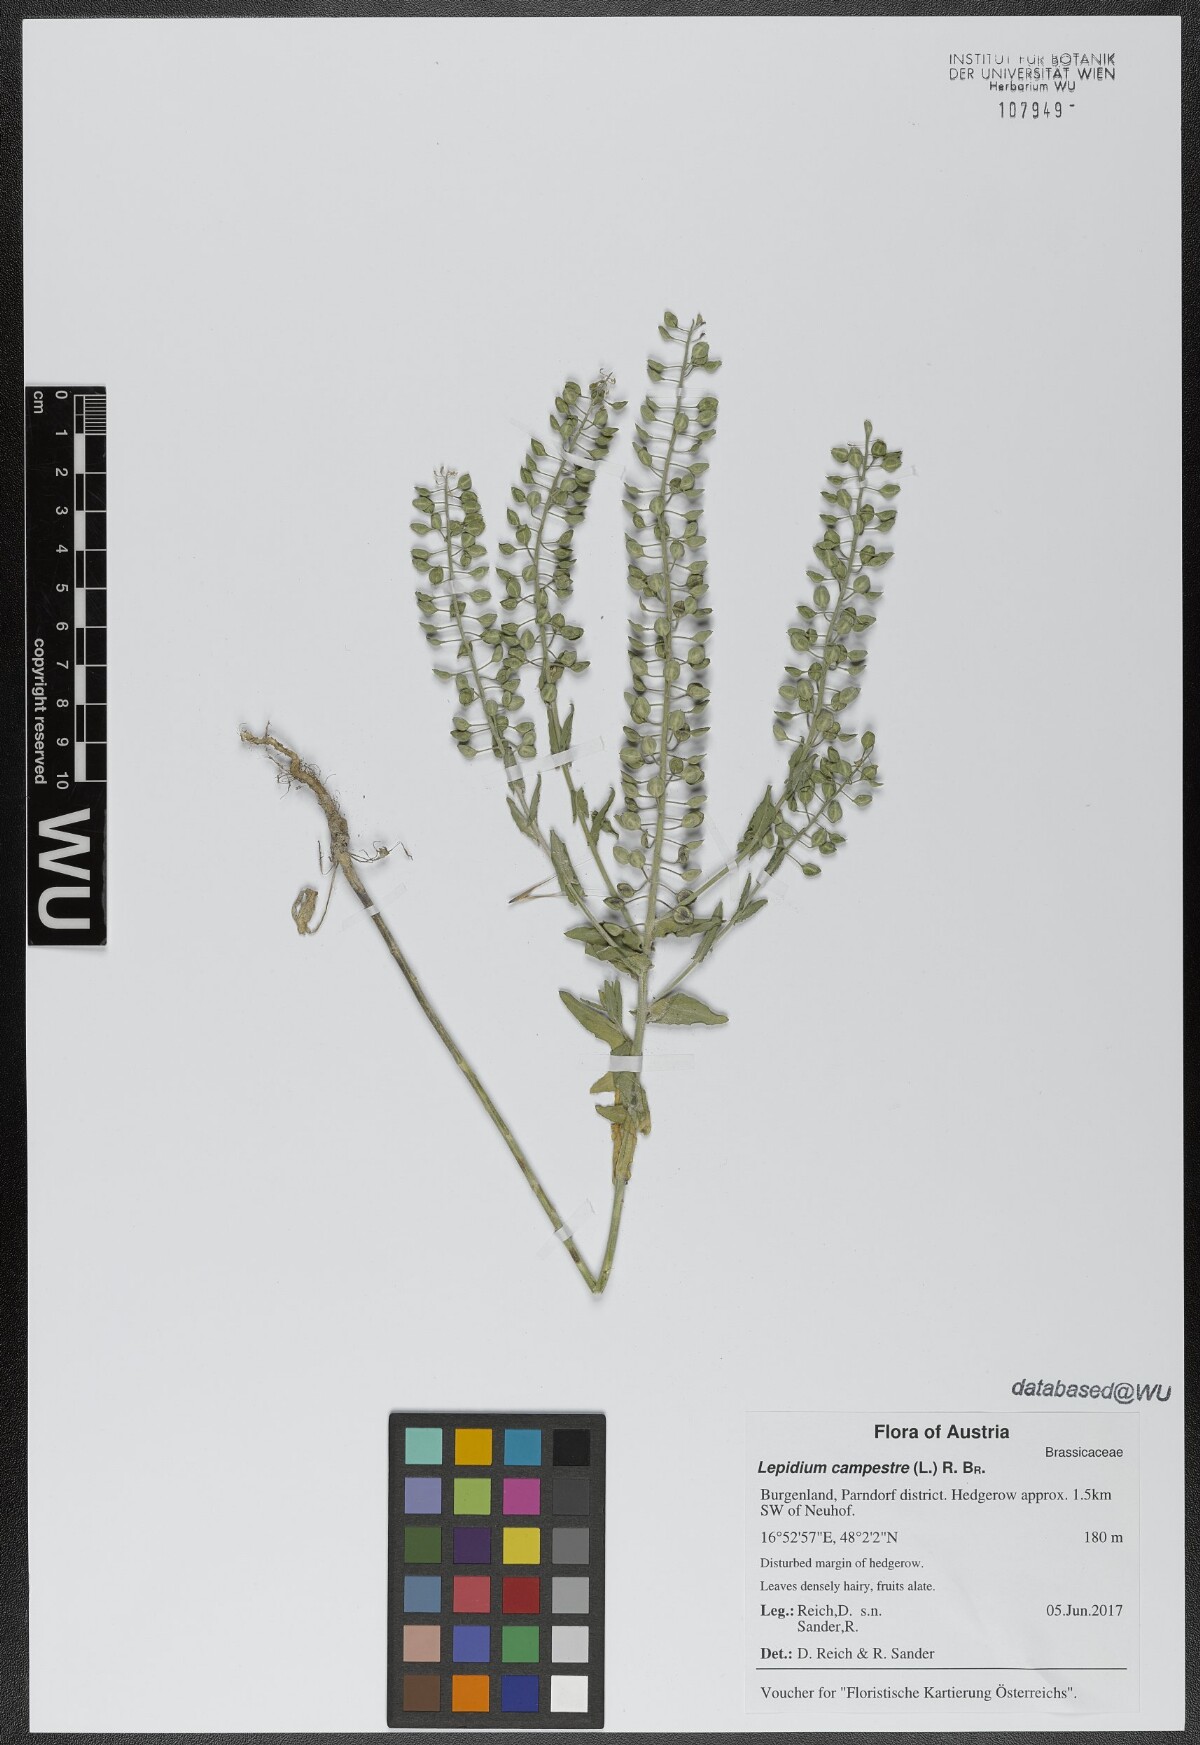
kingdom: Plantae
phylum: Tracheophyta
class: Magnoliopsida
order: Brassicales
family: Brassicaceae
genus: Lepidium
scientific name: Lepidium campestre
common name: Field pepperwort
